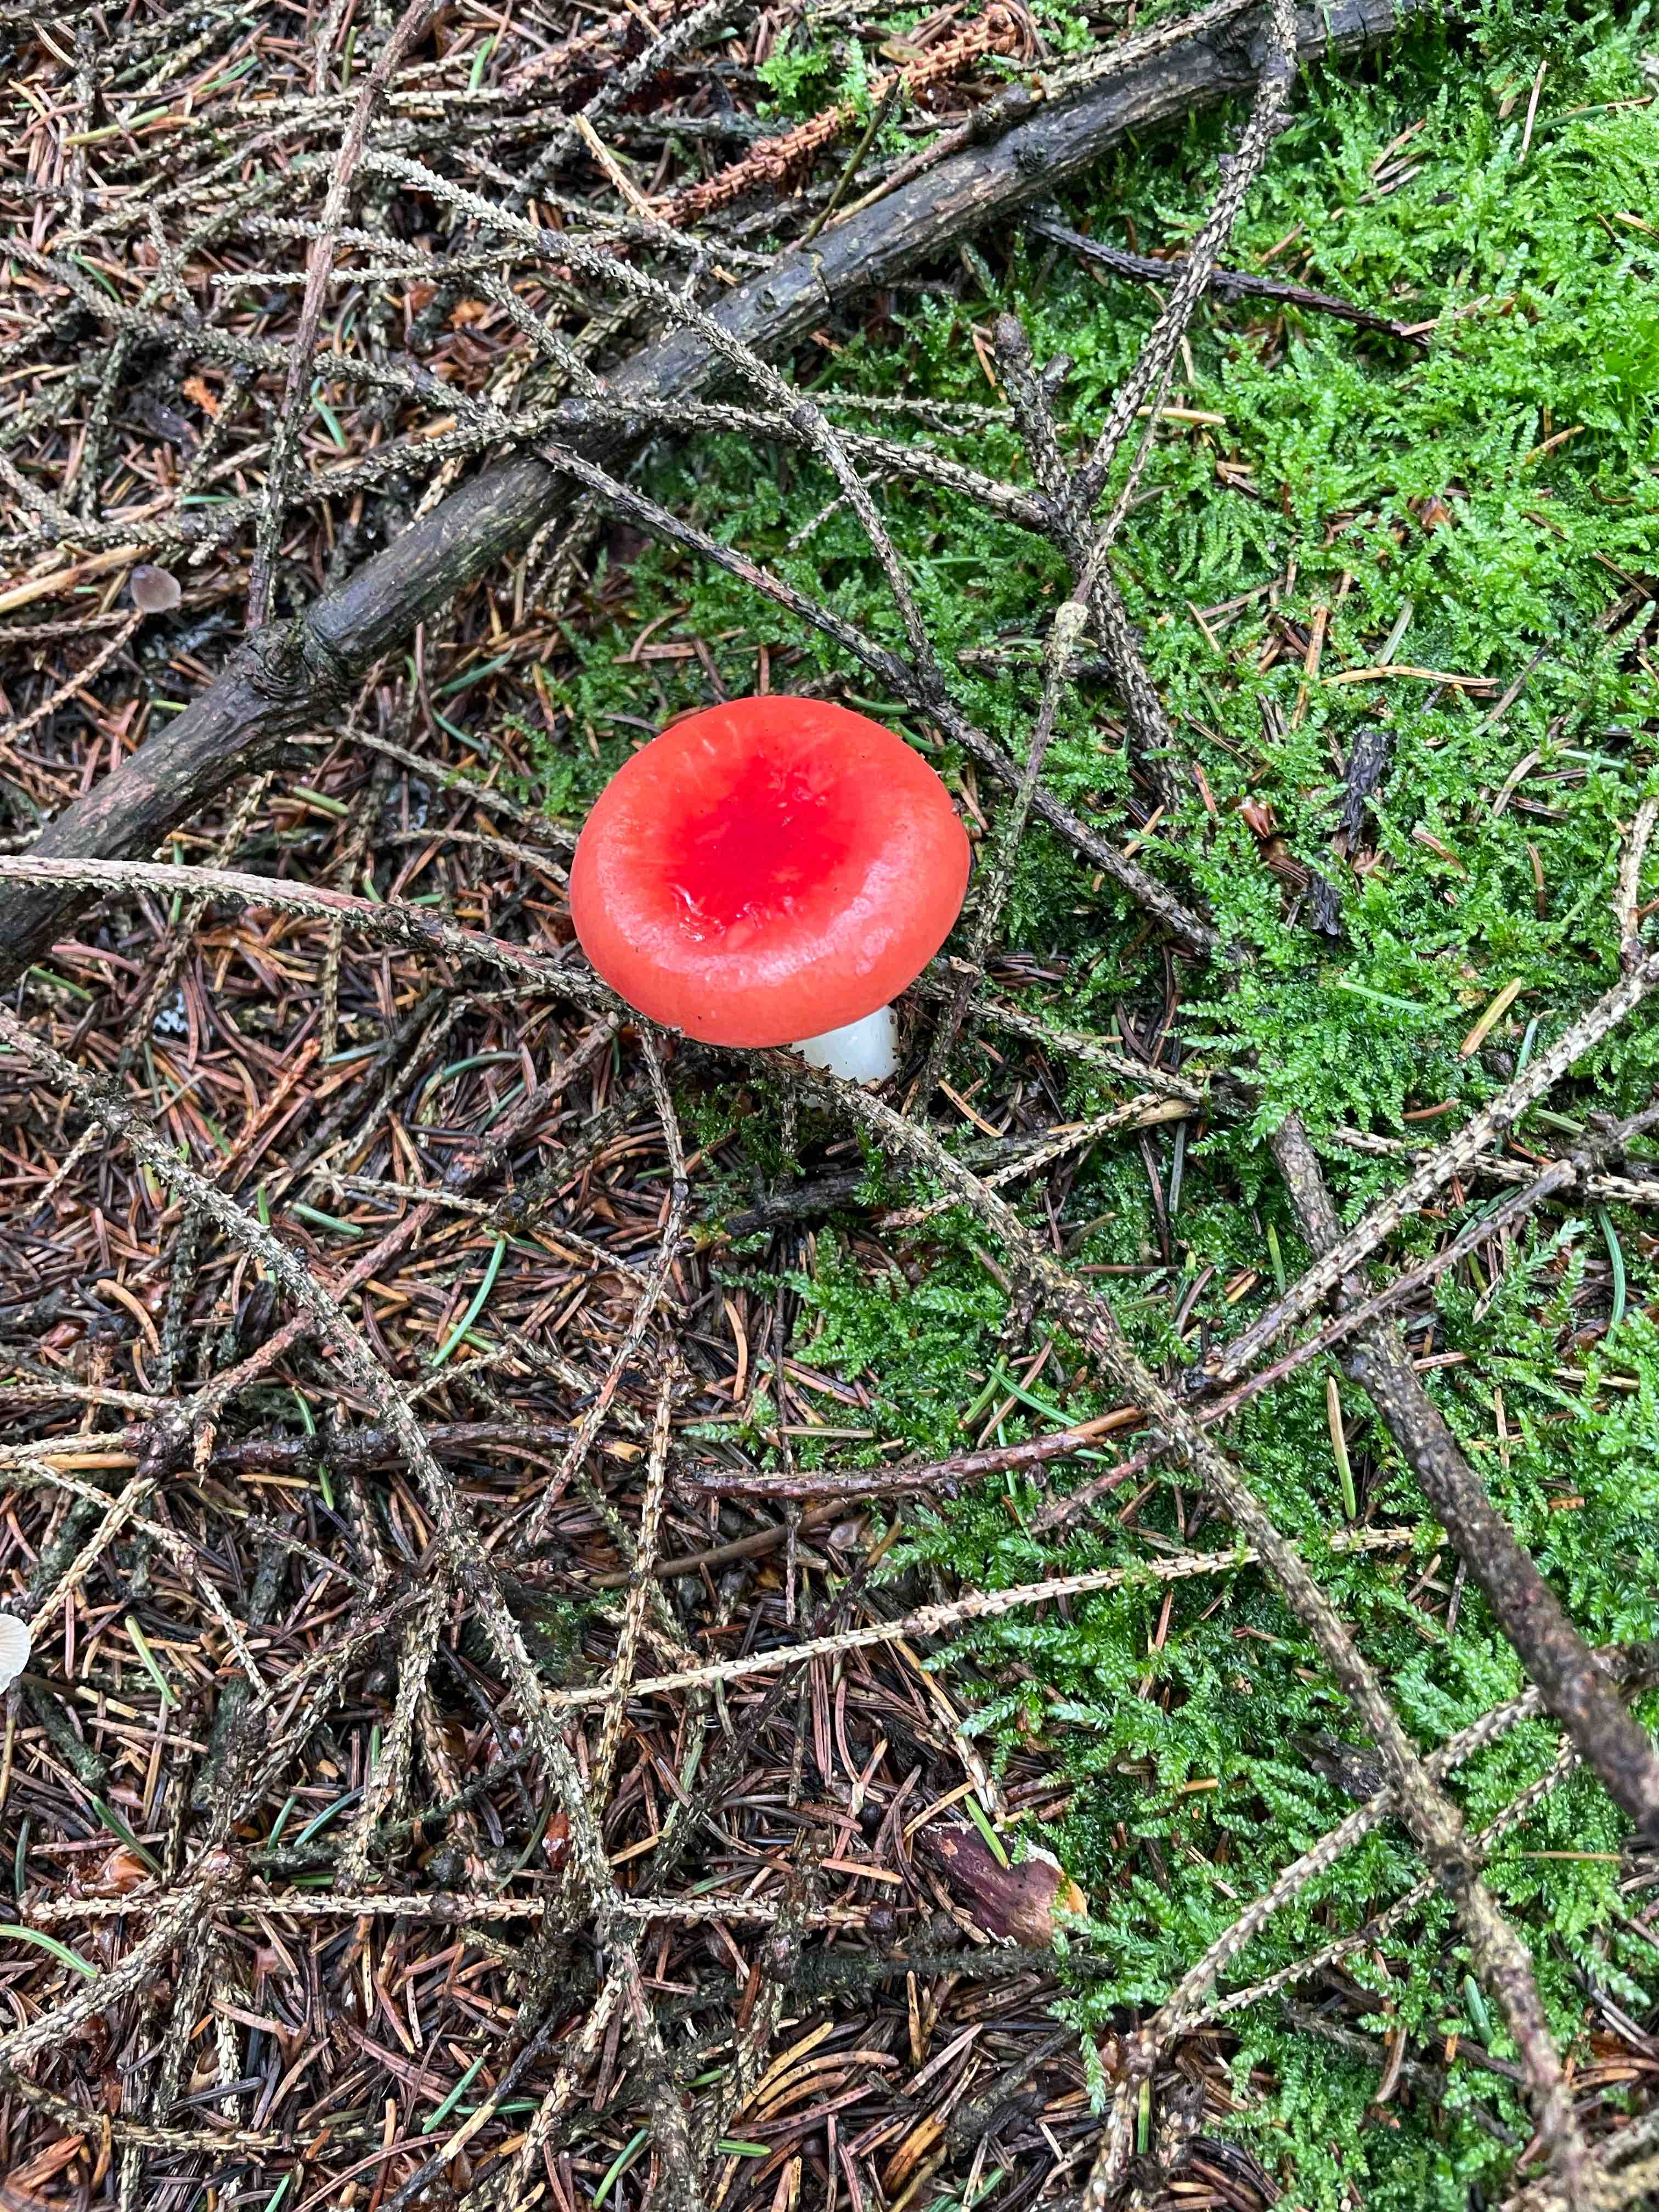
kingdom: Fungi
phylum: Basidiomycota
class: Agaricomycetes
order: Russulales
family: Russulaceae
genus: Russula
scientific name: Russula
